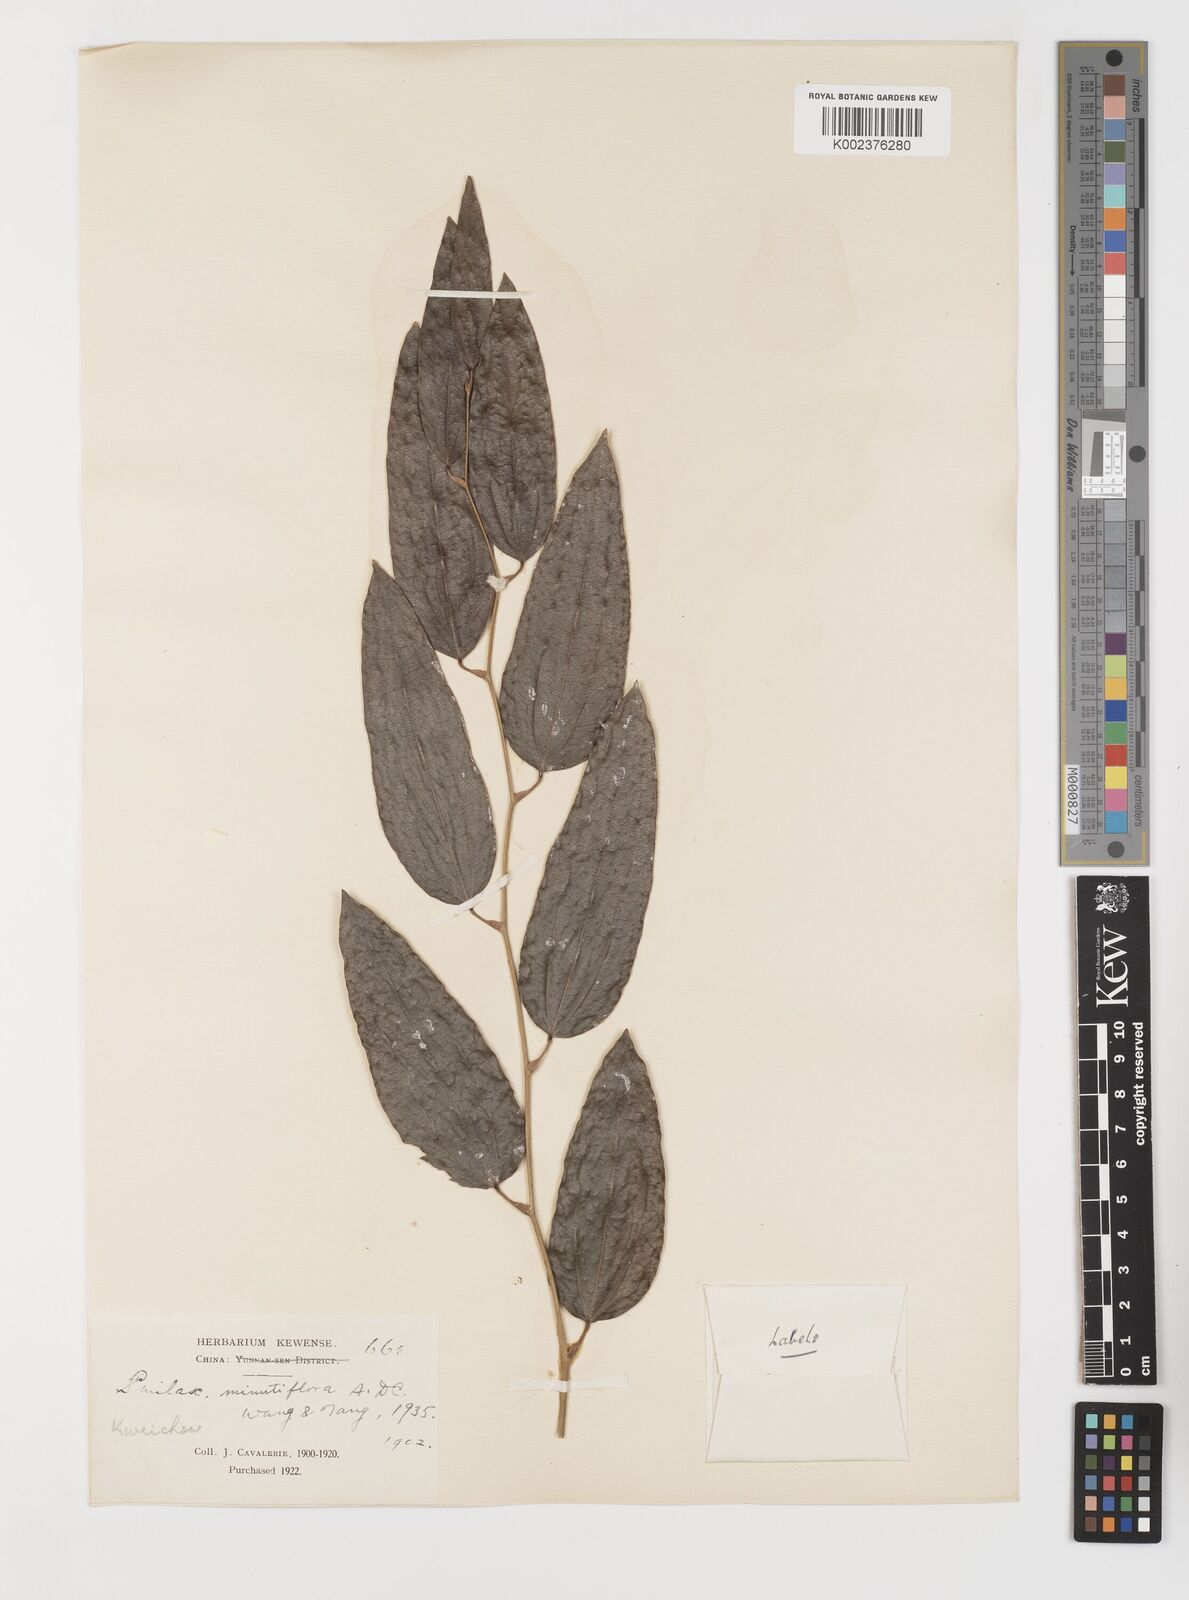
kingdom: Plantae
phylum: Tracheophyta
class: Liliopsida
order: Liliales
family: Smilacaceae
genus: Smilax
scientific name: Smilax minutiflora
